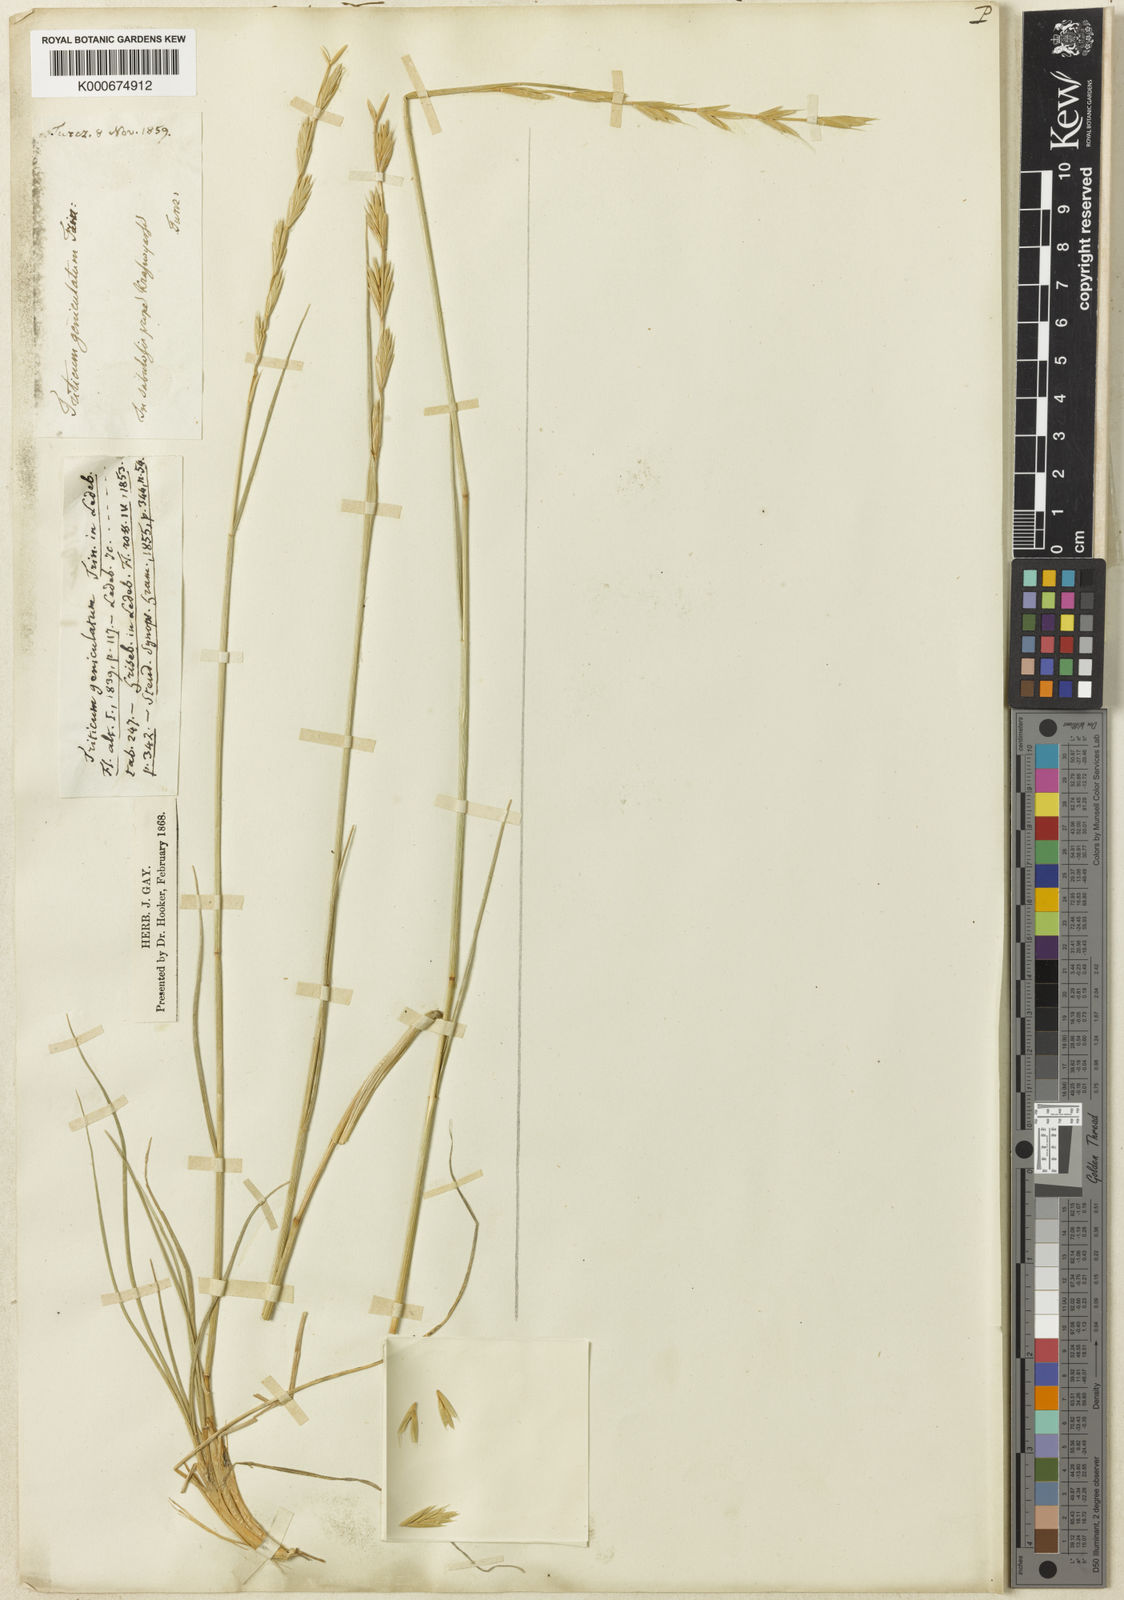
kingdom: Plantae
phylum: Tracheophyta
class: Liliopsida
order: Poales
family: Poaceae
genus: Elymus
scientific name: Elymus
